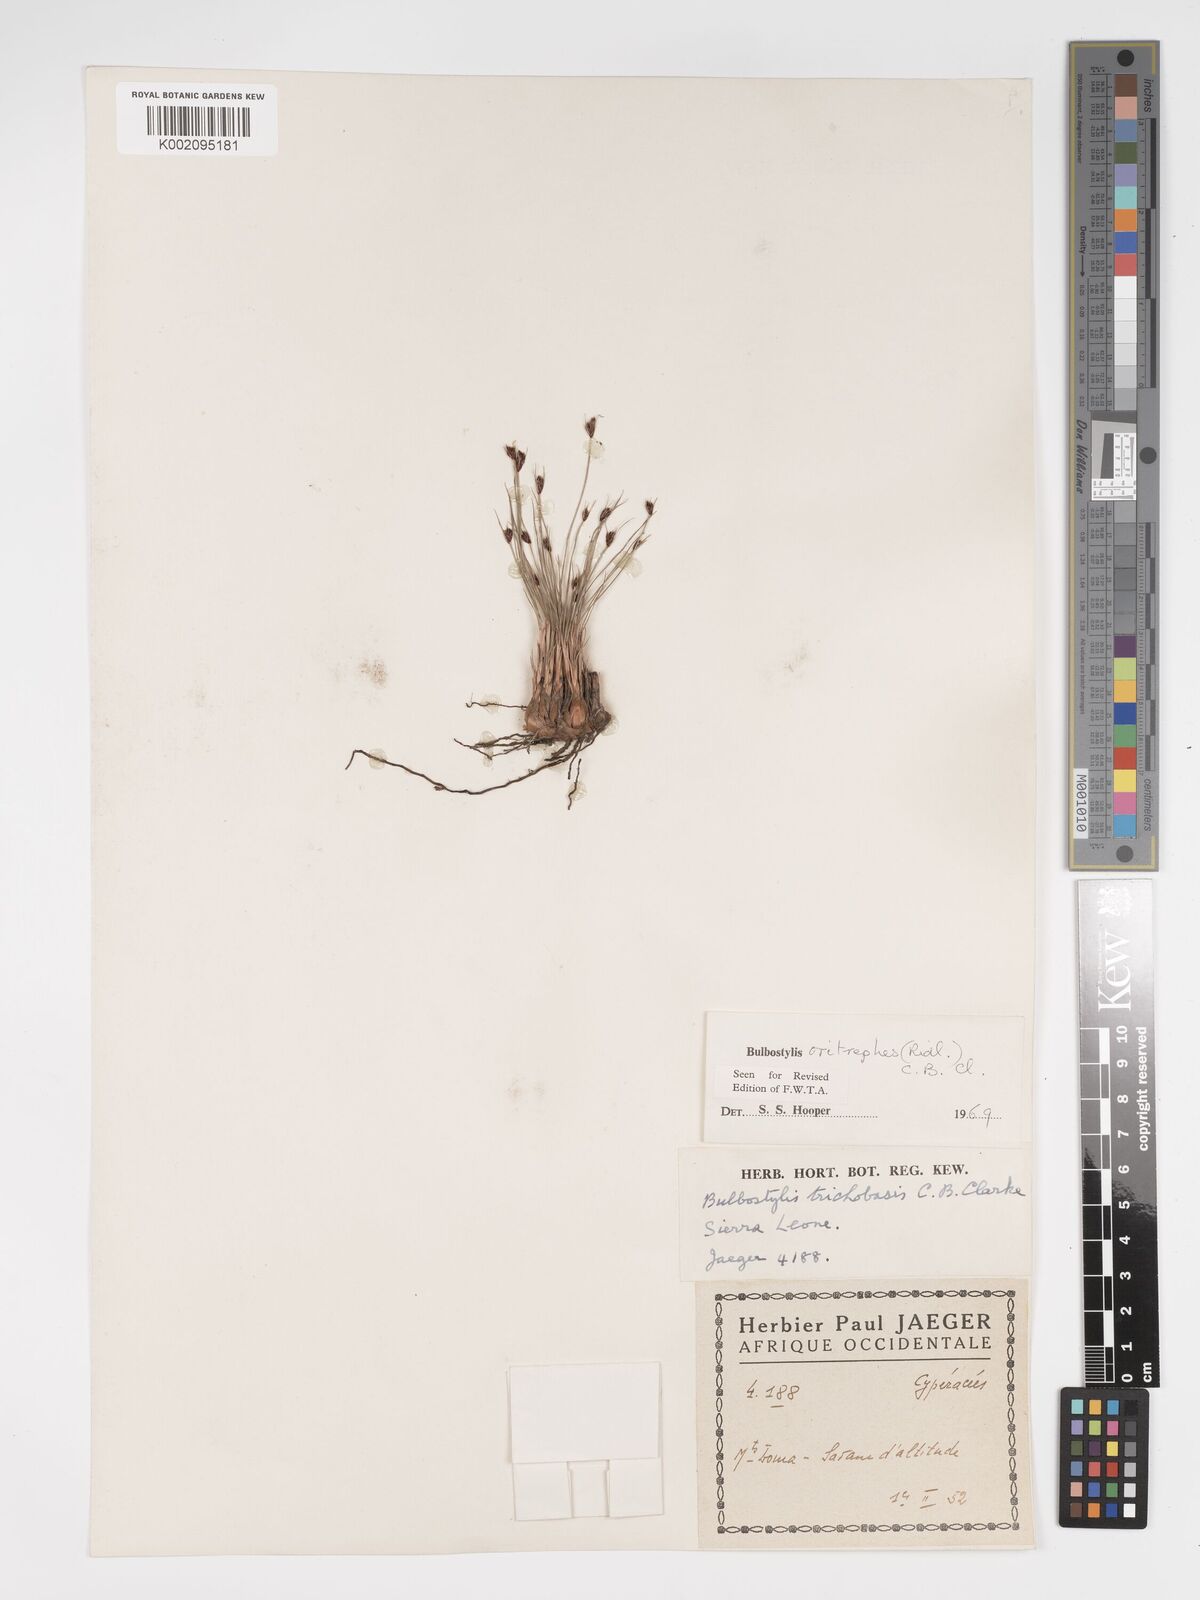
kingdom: Plantae
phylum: Tracheophyta
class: Liliopsida
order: Poales
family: Cyperaceae
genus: Bulbostylis
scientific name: Bulbostylis oritrephes
